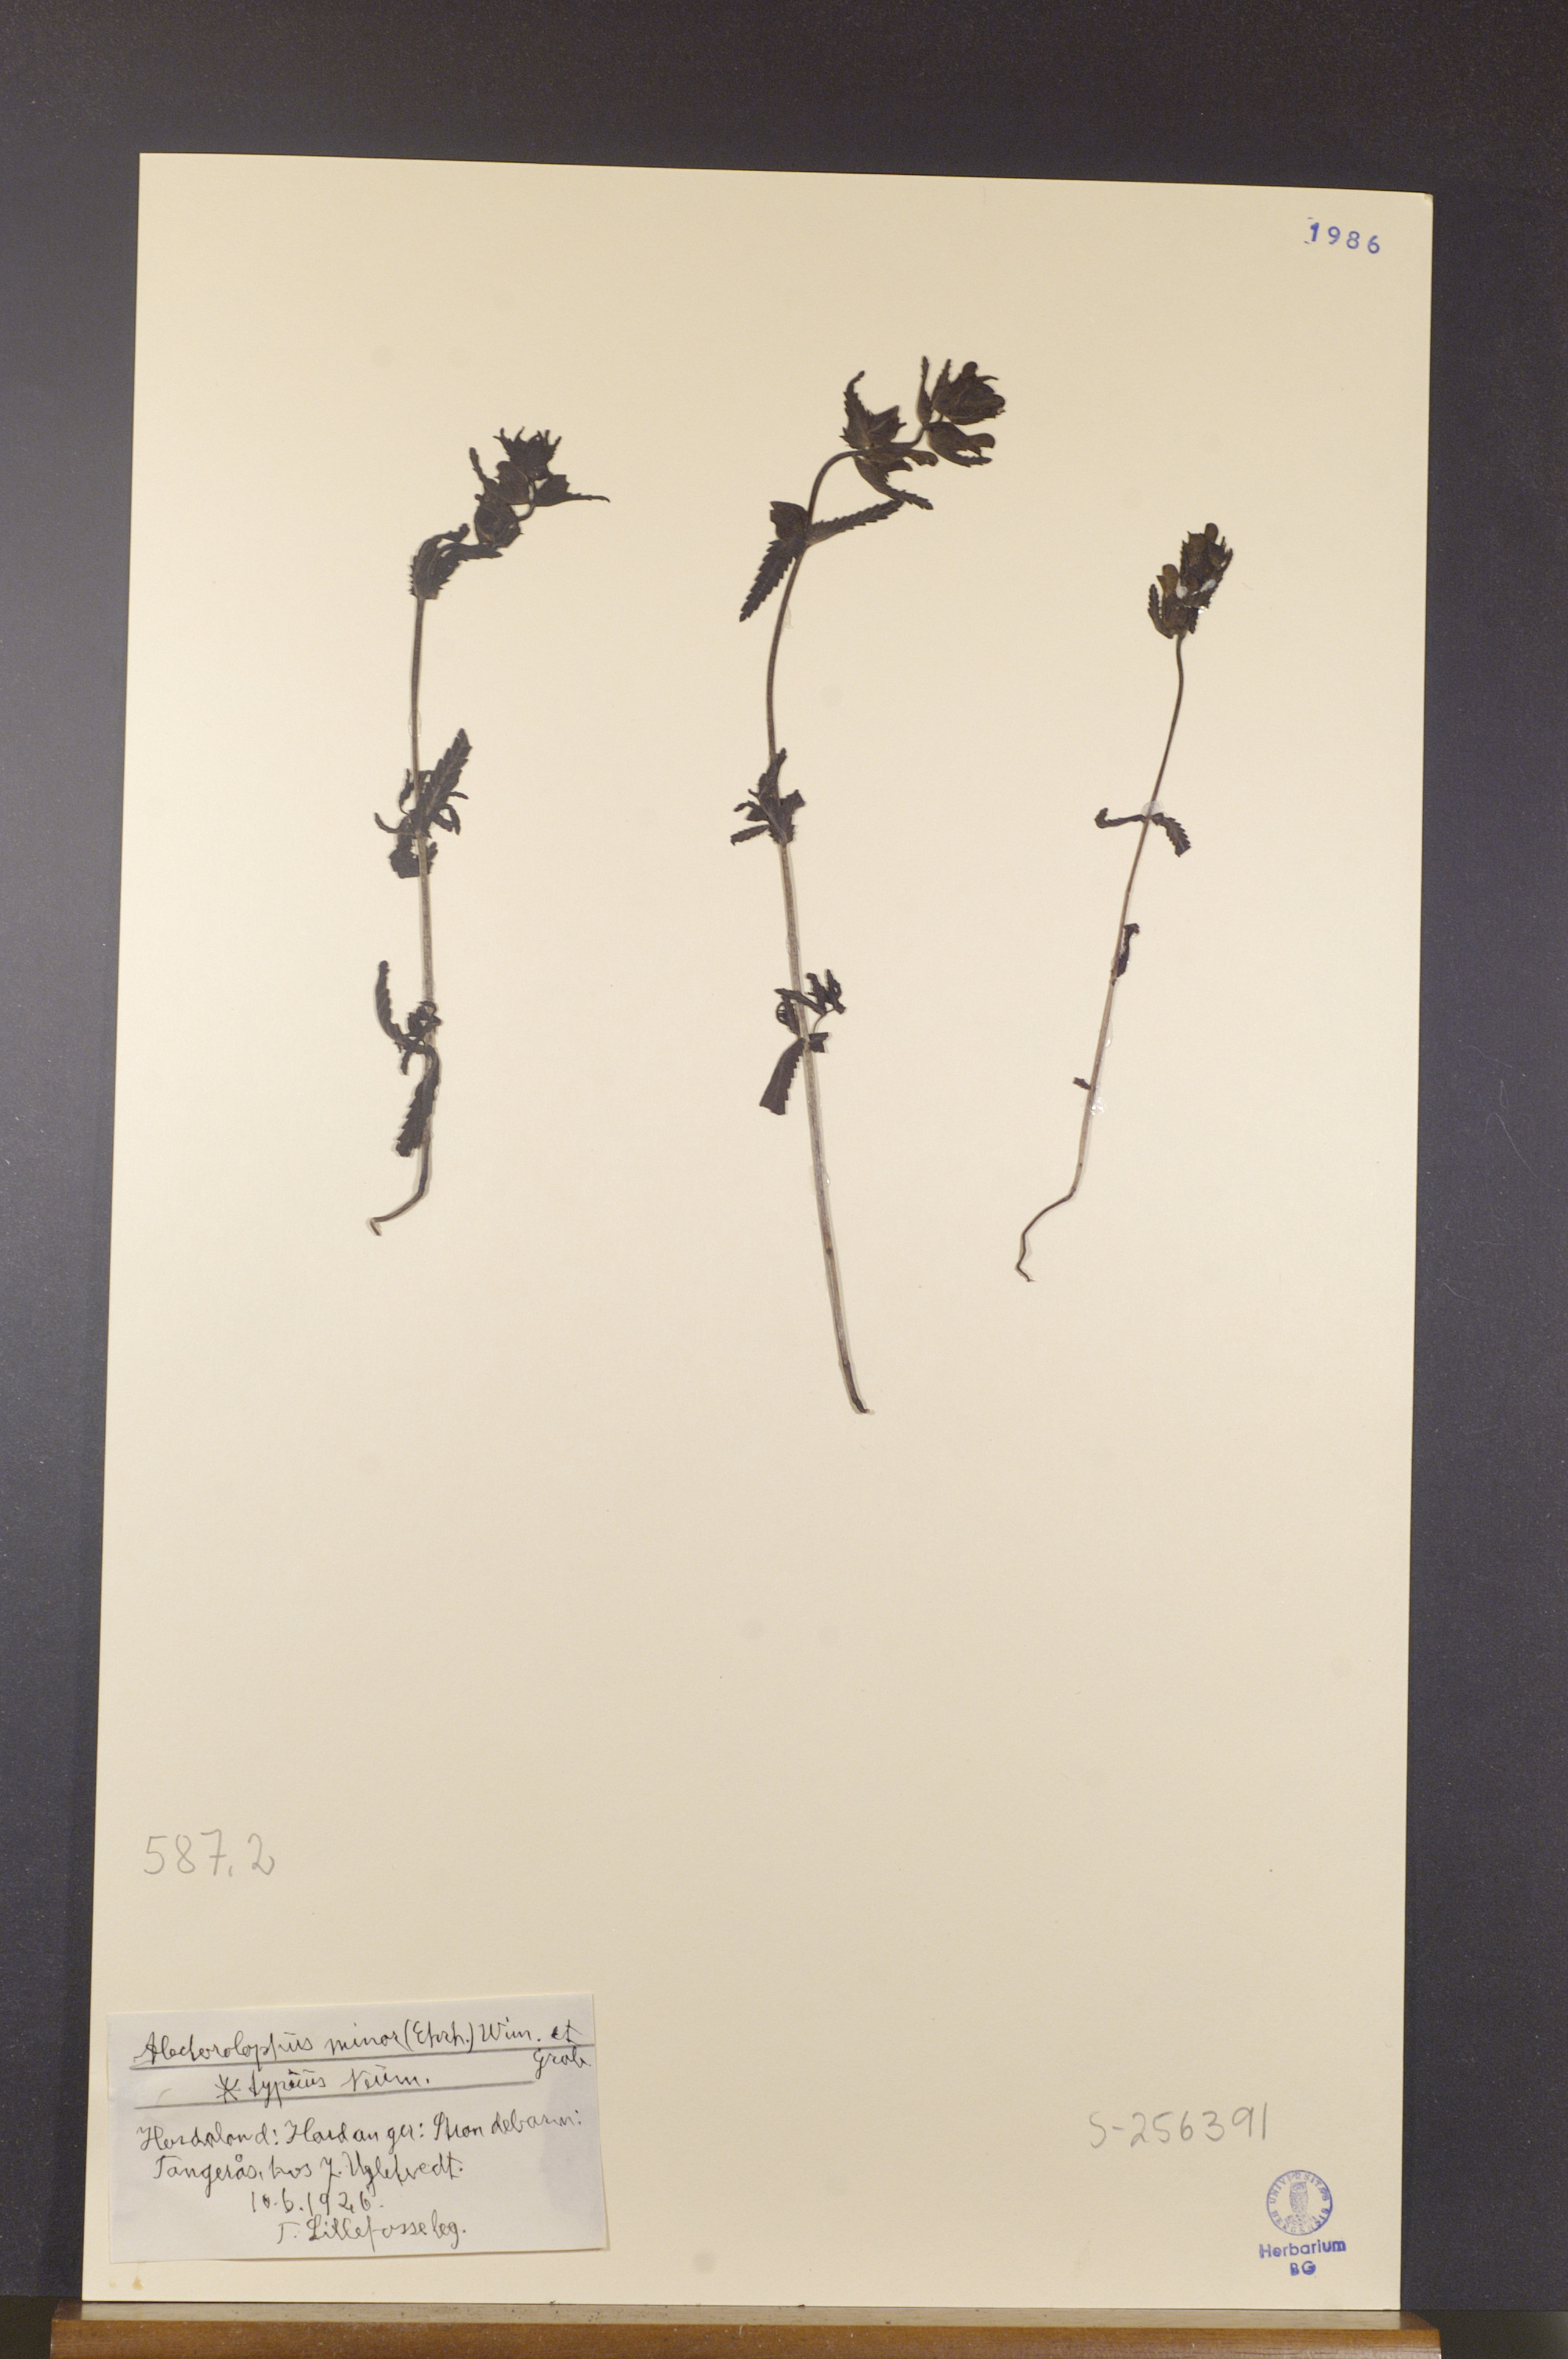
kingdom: Plantae
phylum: Tracheophyta
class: Magnoliopsida
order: Lamiales
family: Orobanchaceae
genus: Rhinanthus
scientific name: Rhinanthus minor
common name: Yellow-rattle
